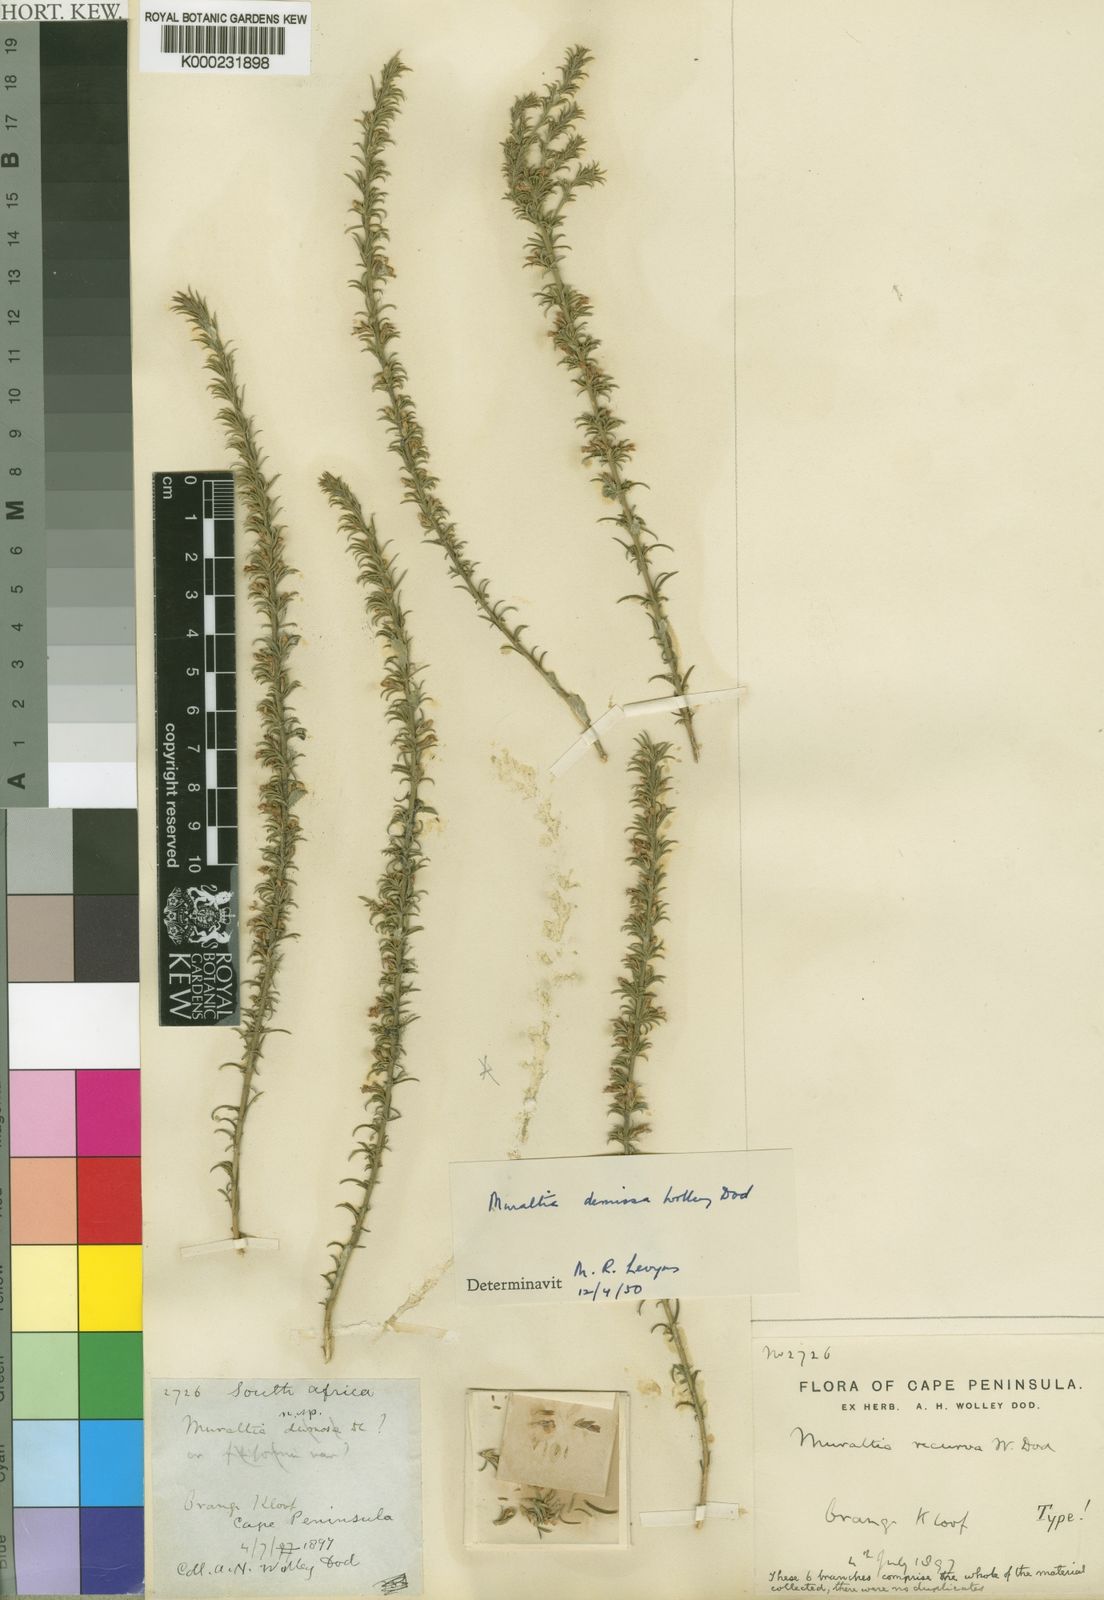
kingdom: Plantae
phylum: Tracheophyta
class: Magnoliopsida
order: Fabales
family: Polygalaceae
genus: Muraltia
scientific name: Muraltia demissa
